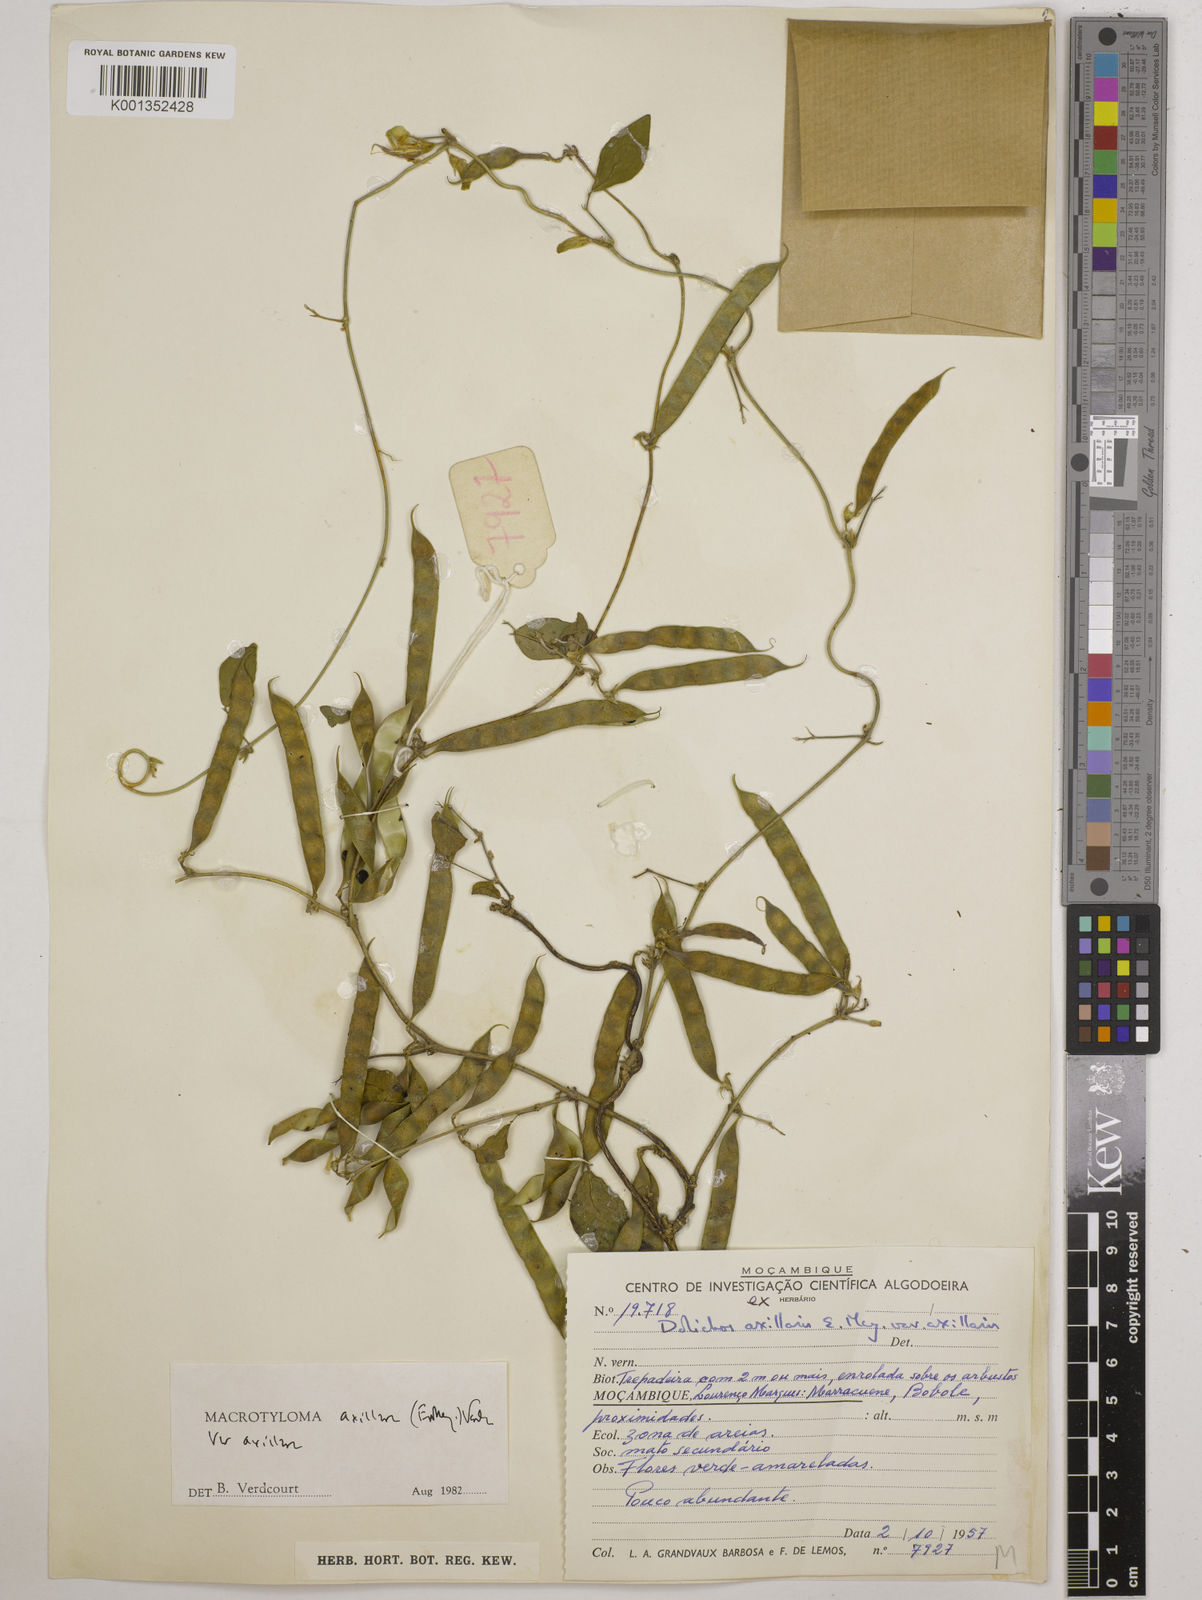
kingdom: Plantae
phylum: Tracheophyta
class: Magnoliopsida
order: Fabales
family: Fabaceae
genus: Macrotyloma
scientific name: Macrotyloma axillare
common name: Perennial horsegram
